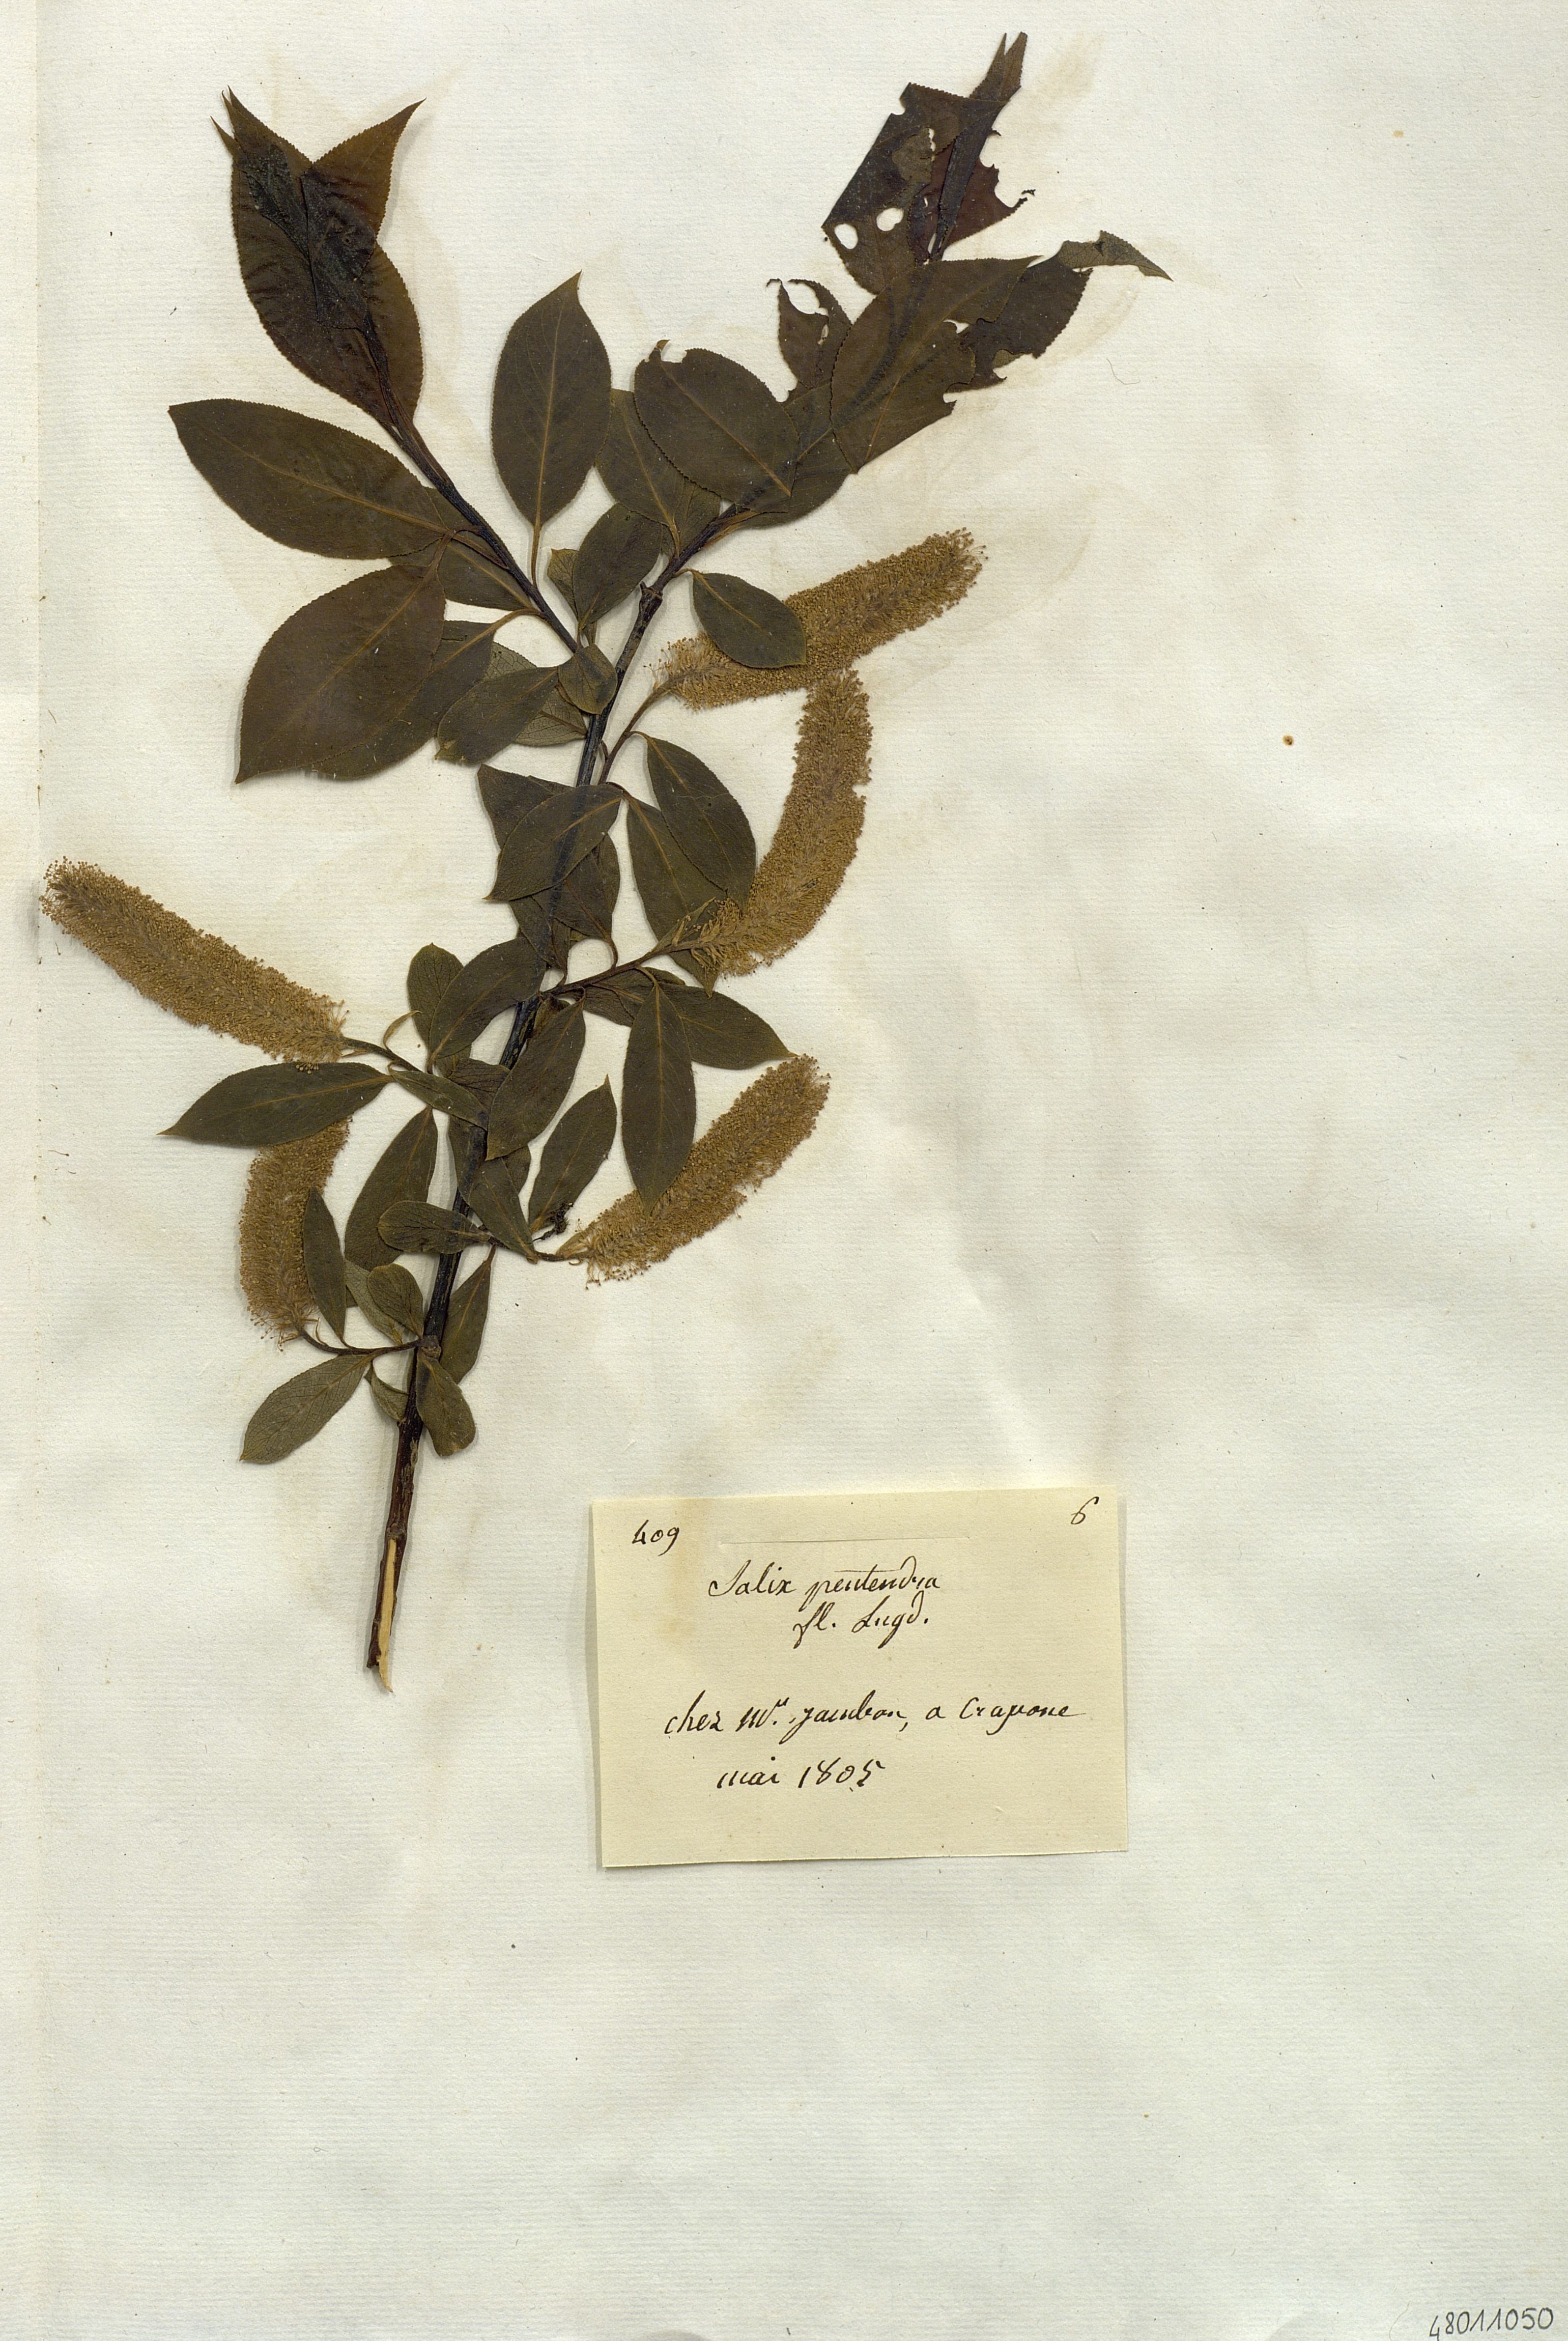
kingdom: Plantae
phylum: Tracheophyta
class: Magnoliopsida
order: Malpighiales
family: Salicaceae
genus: Salix
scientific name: Salix pentandra
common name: Bay willow
